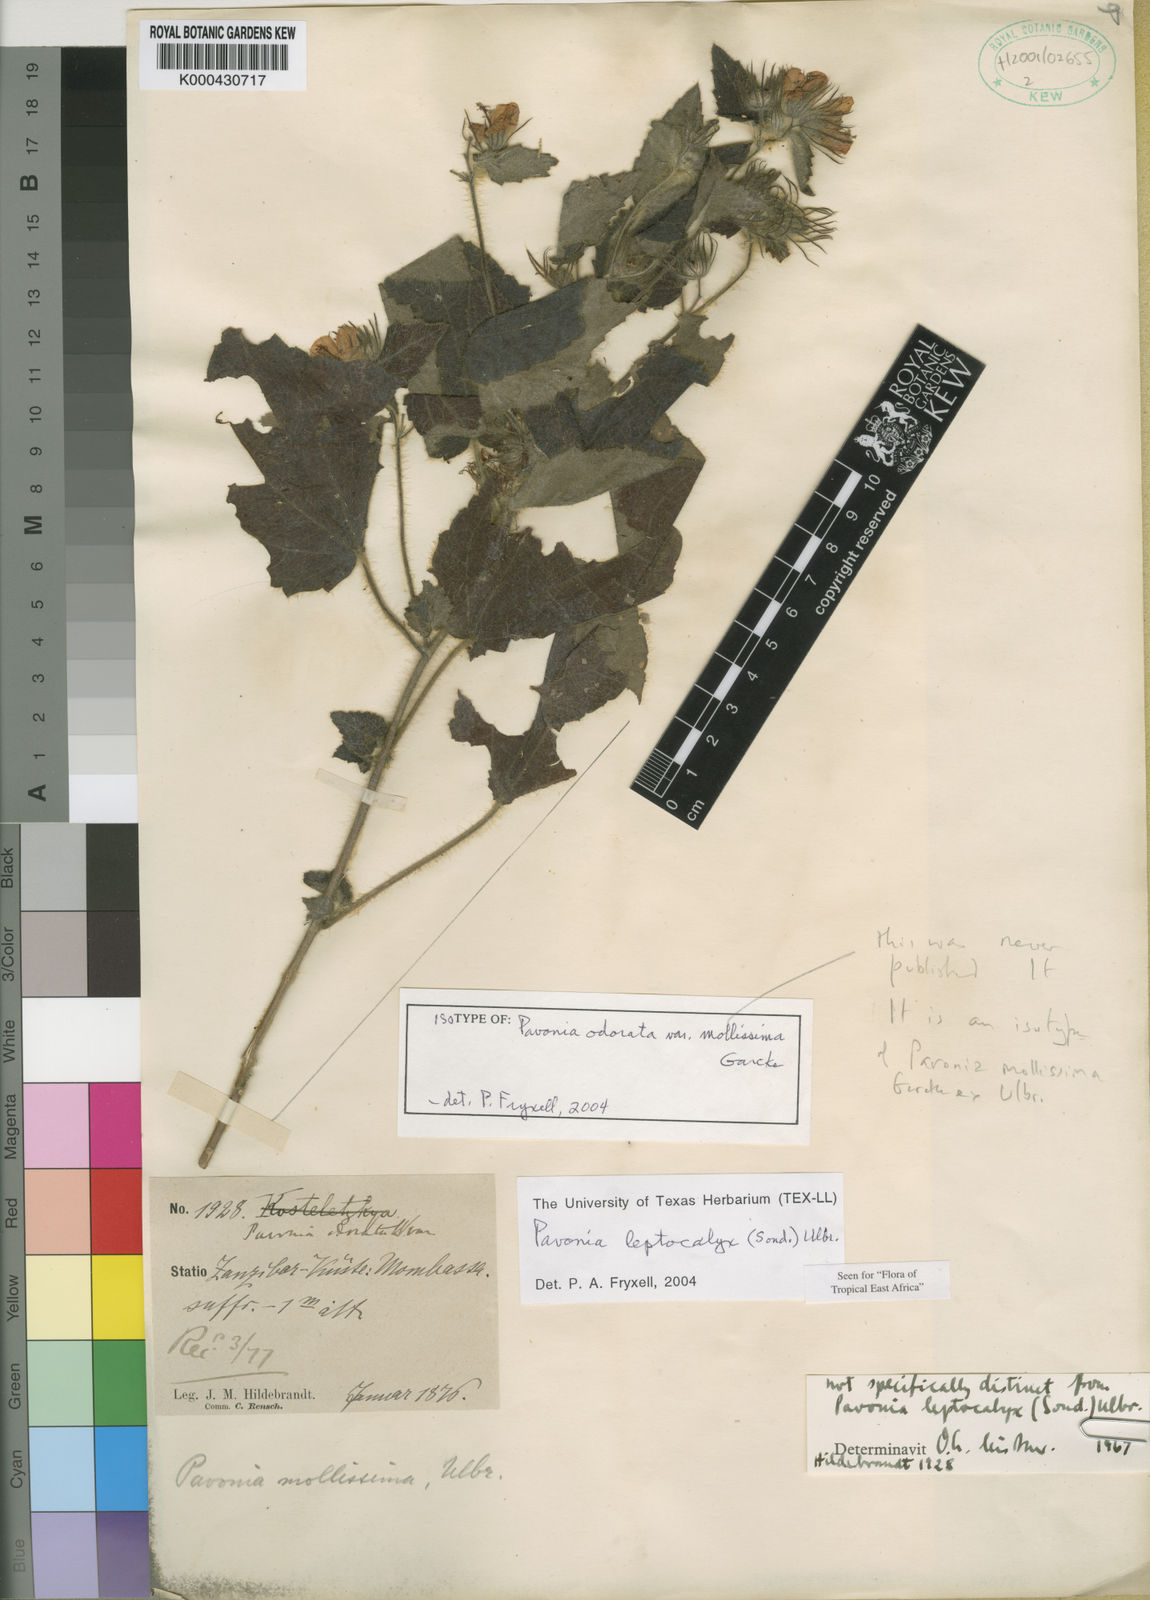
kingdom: Plantae
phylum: Tracheophyta
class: Magnoliopsida
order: Malvales
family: Malvaceae
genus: Pavonia
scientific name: Pavonia leptocalyx
